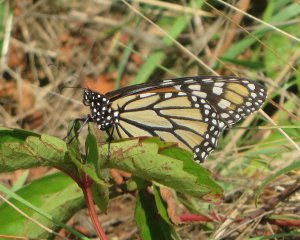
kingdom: Animalia
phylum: Arthropoda
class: Insecta
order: Lepidoptera
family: Nymphalidae
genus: Danaus
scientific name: Danaus plexippus
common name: Monarch
